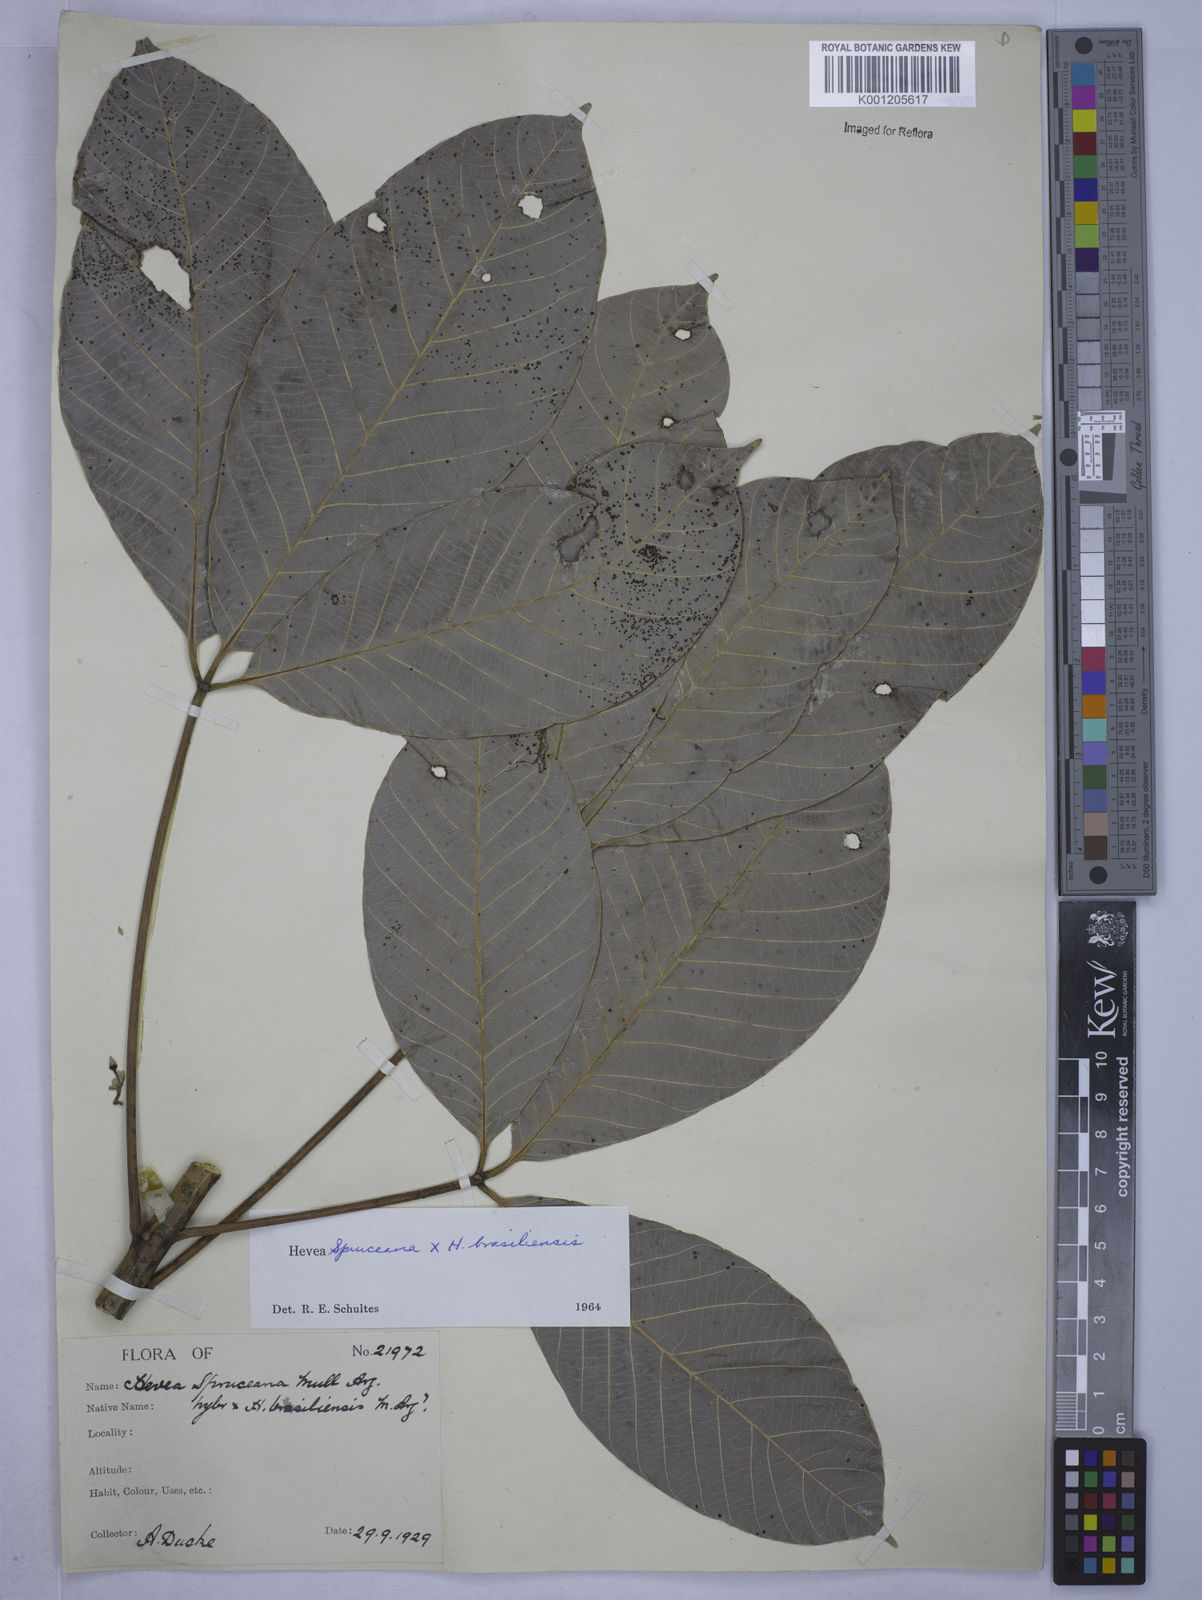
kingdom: Plantae
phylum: Tracheophyta
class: Magnoliopsida
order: Malpighiales
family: Euphorbiaceae
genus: Hevea
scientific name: Hevea
